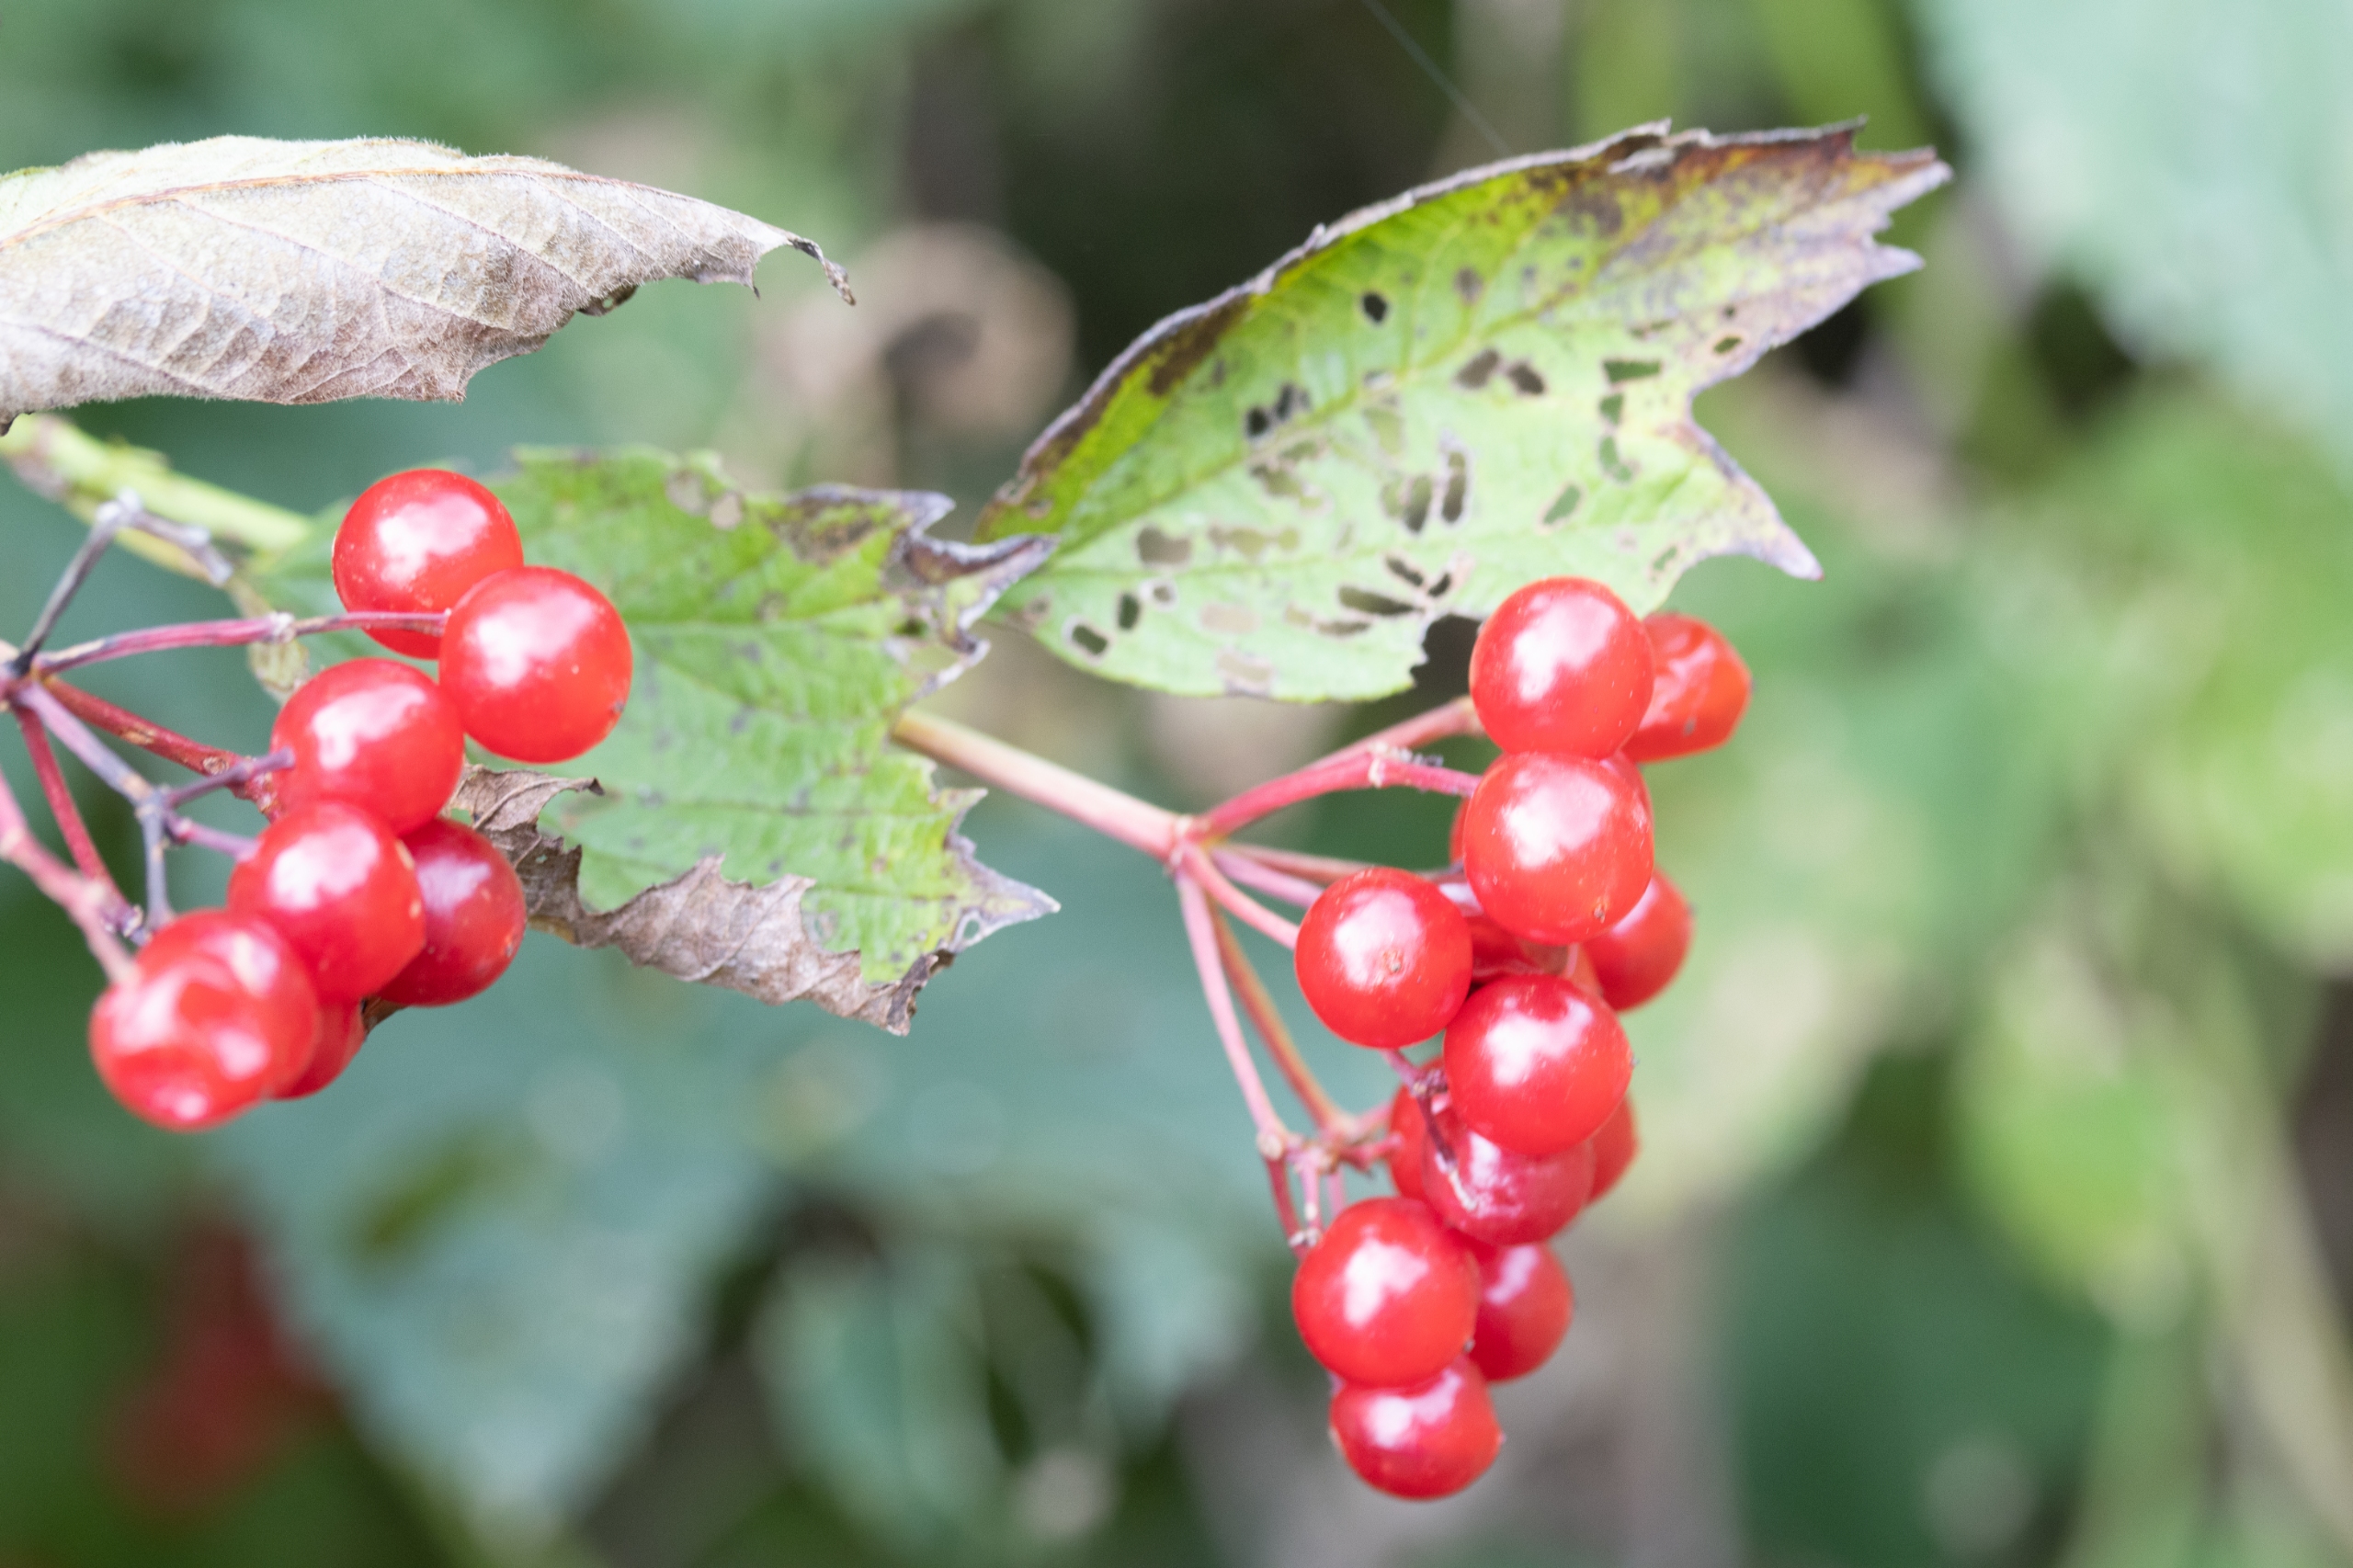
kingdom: Plantae
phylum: Tracheophyta
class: Magnoliopsida
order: Dipsacales
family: Viburnaceae
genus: Viburnum
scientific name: Viburnum opulus
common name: Kvalkved
